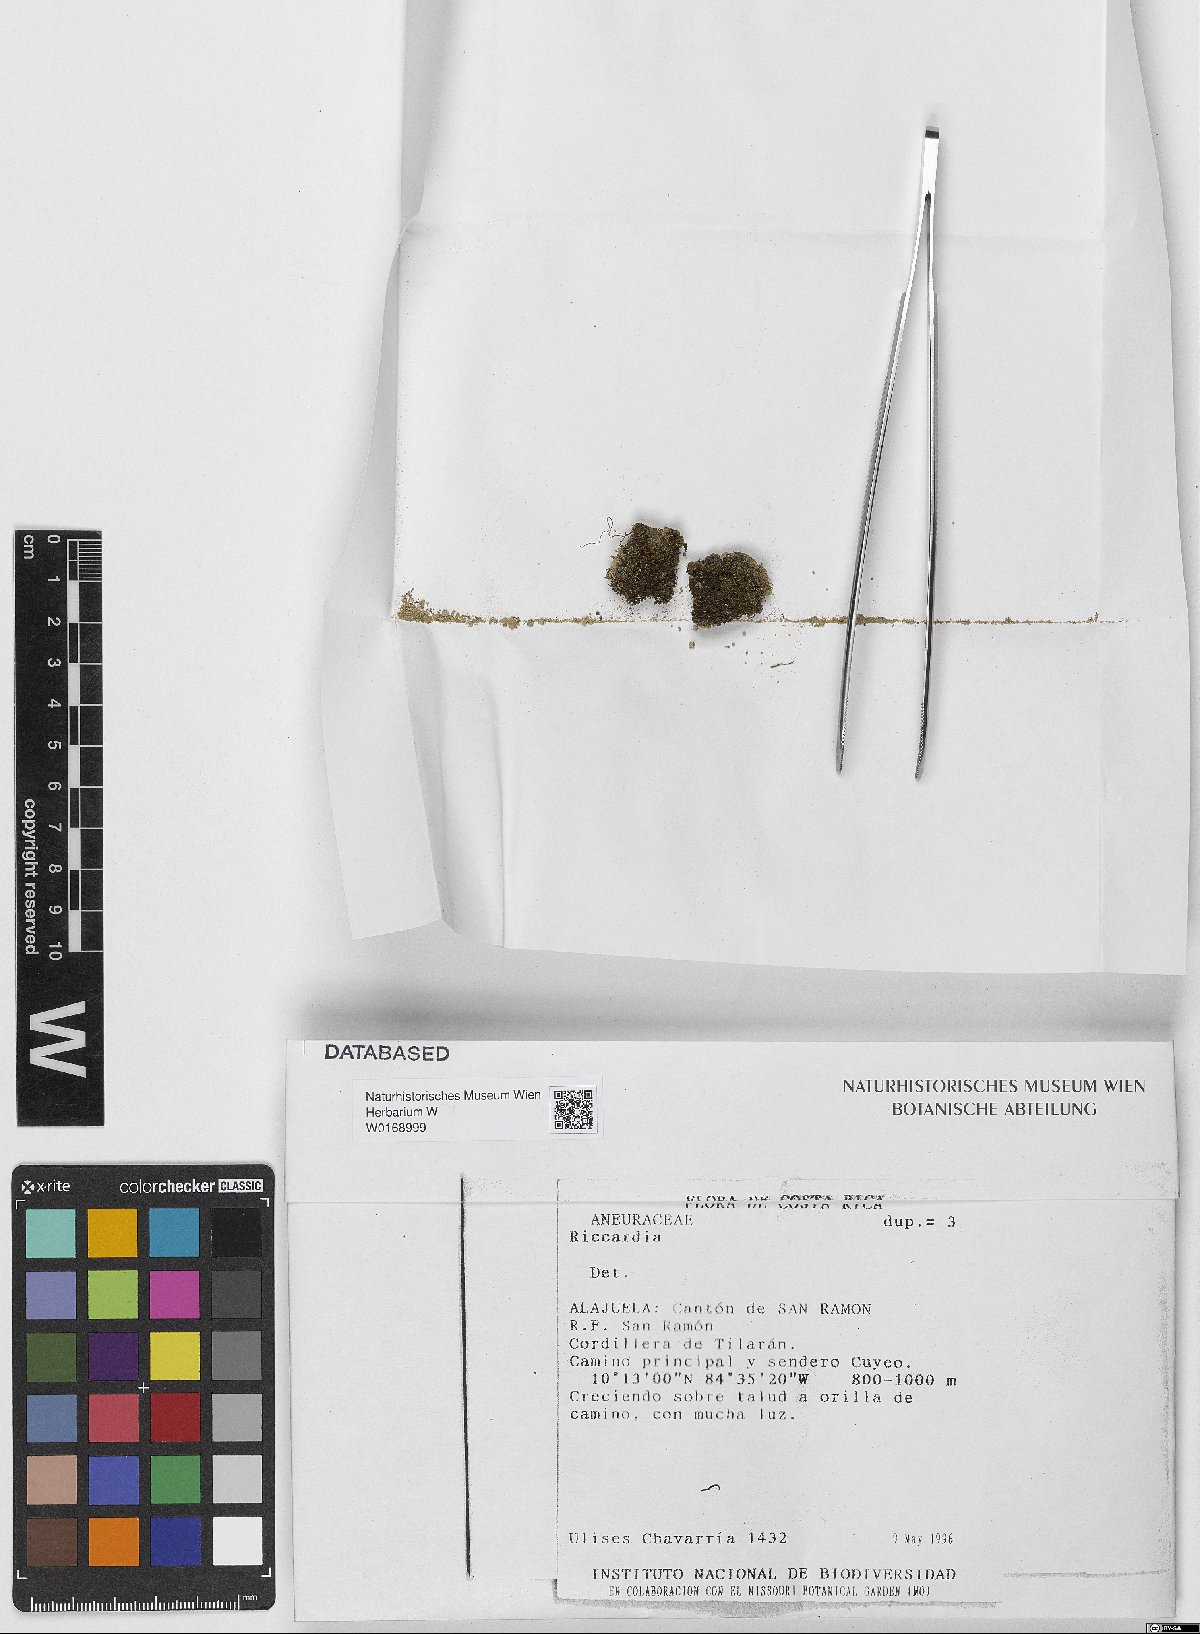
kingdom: Plantae
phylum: Marchantiophyta
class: Jungermanniopsida
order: Metzgeriales
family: Aneuraceae
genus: Riccardia
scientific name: Riccardia
